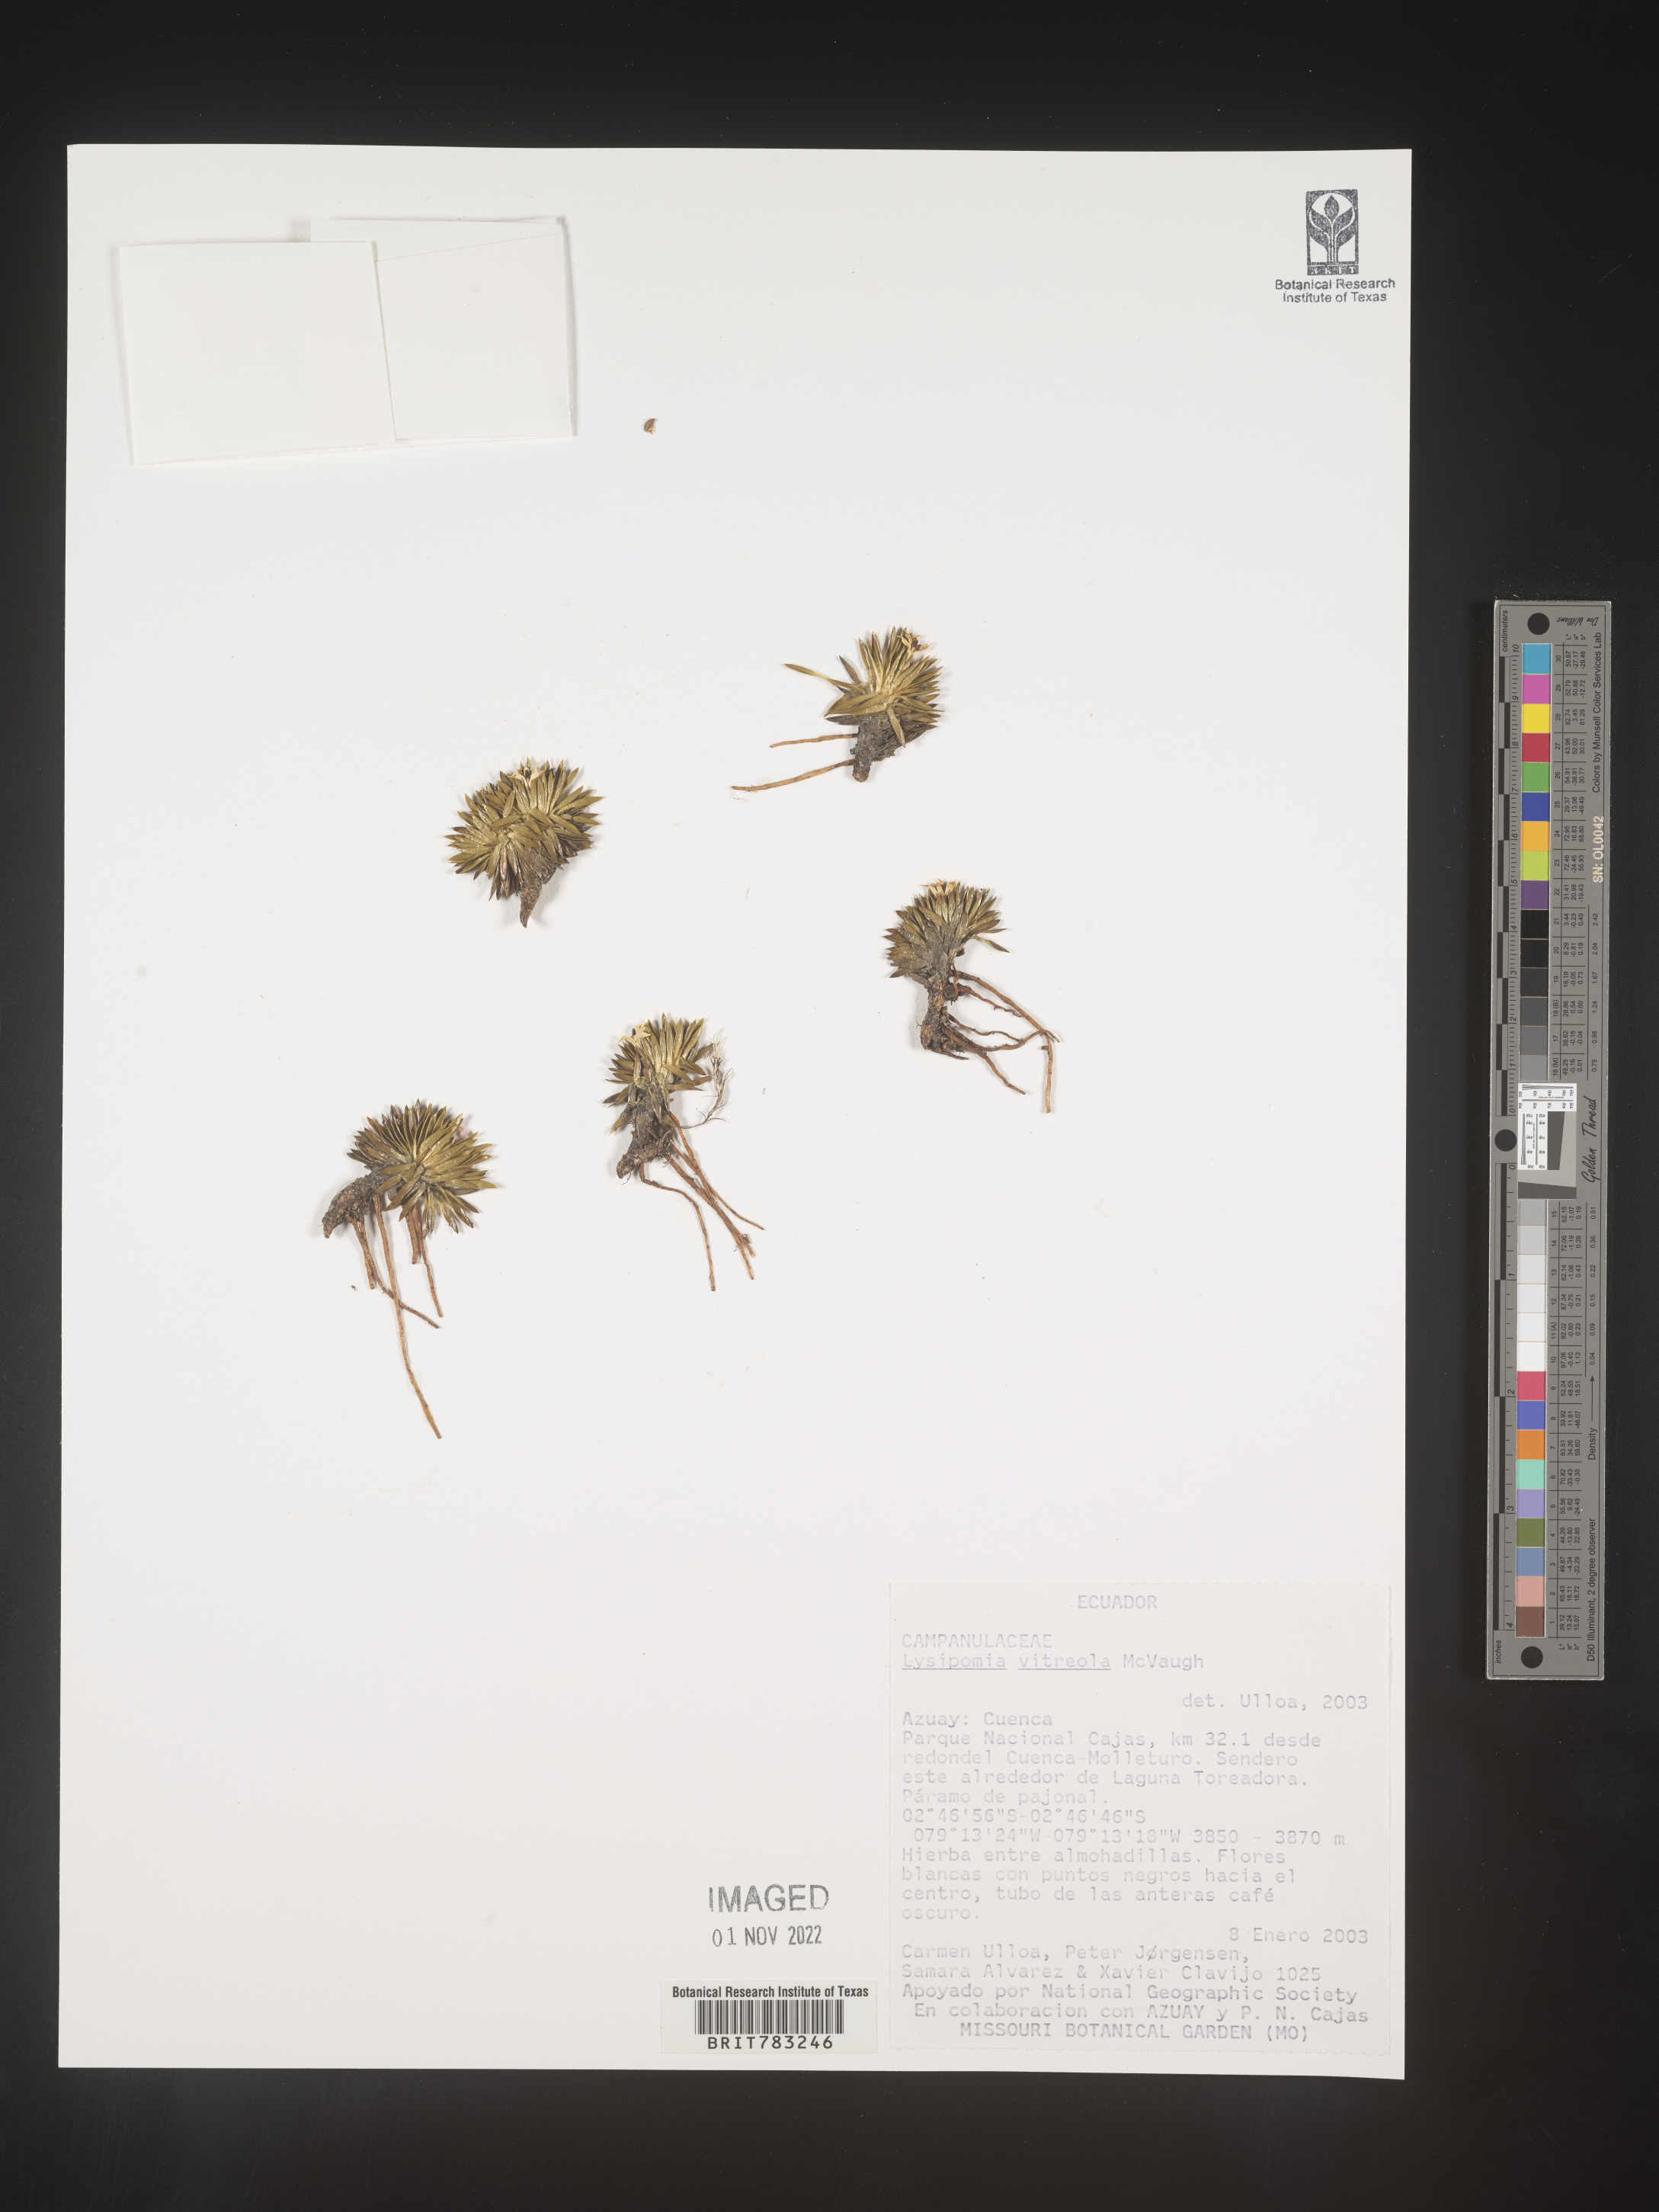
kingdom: Plantae
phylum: Tracheophyta
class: Magnoliopsida
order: Asterales
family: Campanulaceae
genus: Lysipomia
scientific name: Lysipomia
